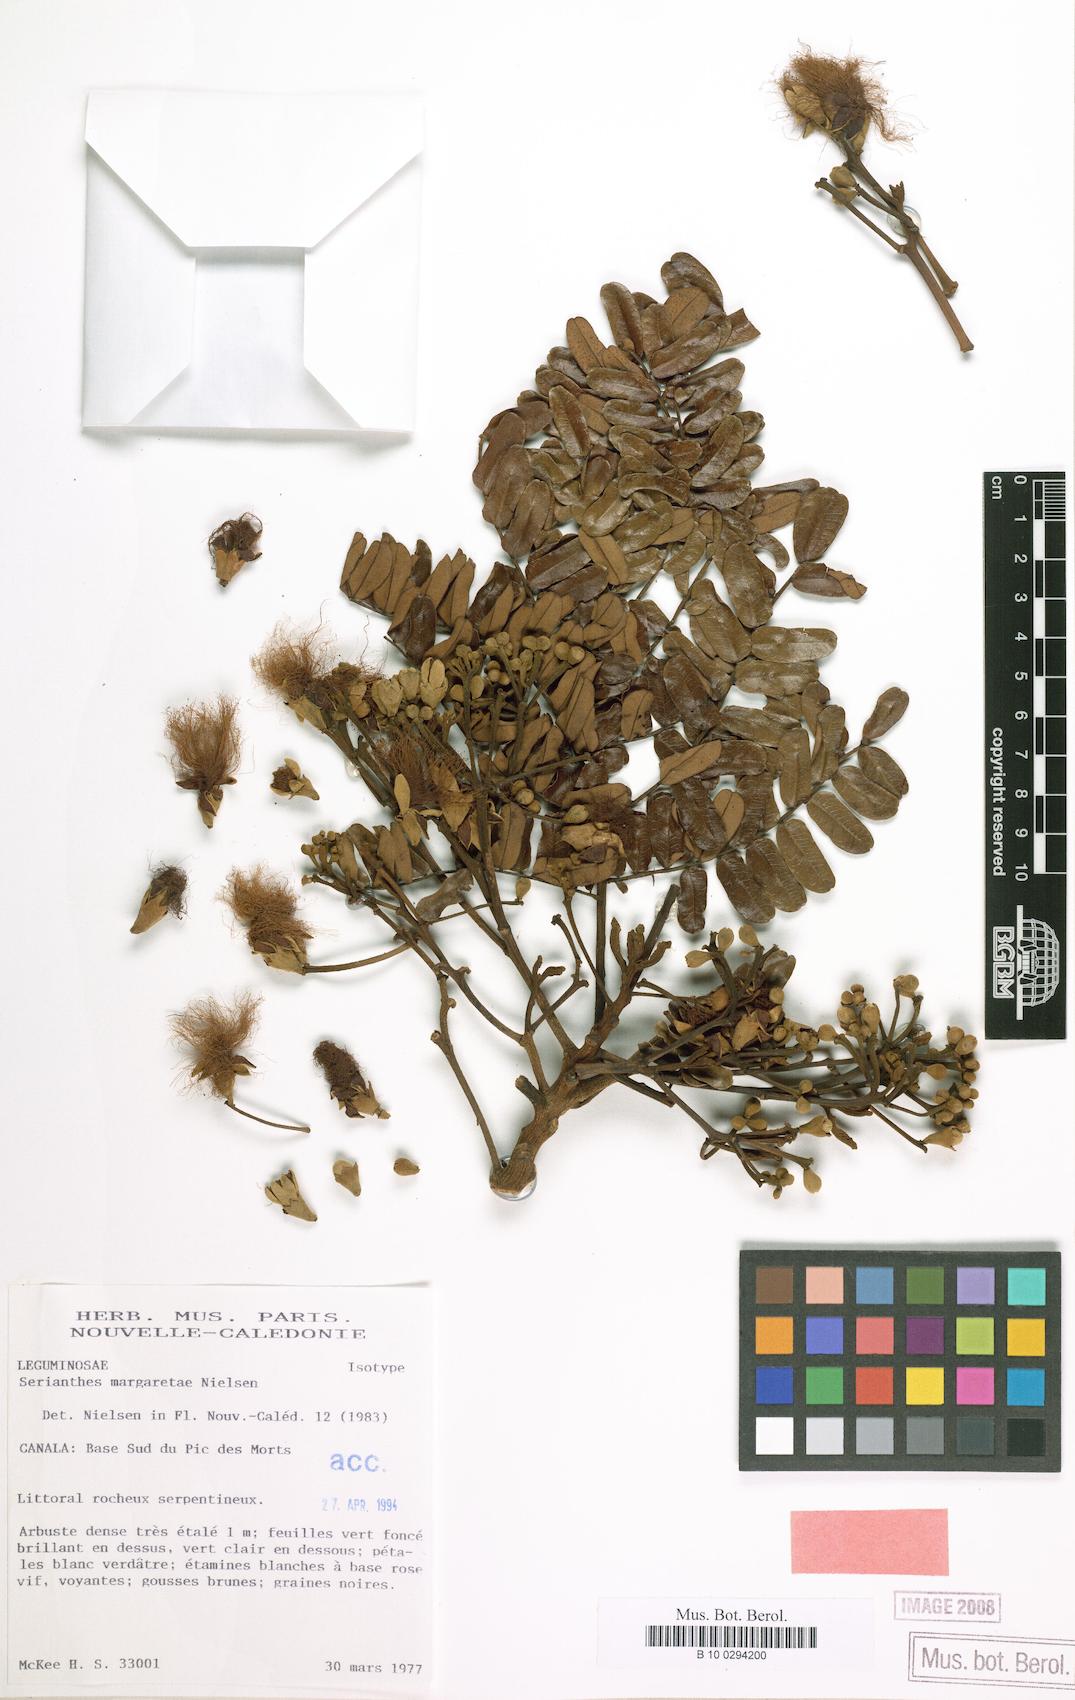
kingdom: Plantae
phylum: Tracheophyta
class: Magnoliopsida
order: Fabales
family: Fabaceae
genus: Serianthes
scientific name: Serianthes margaretae
